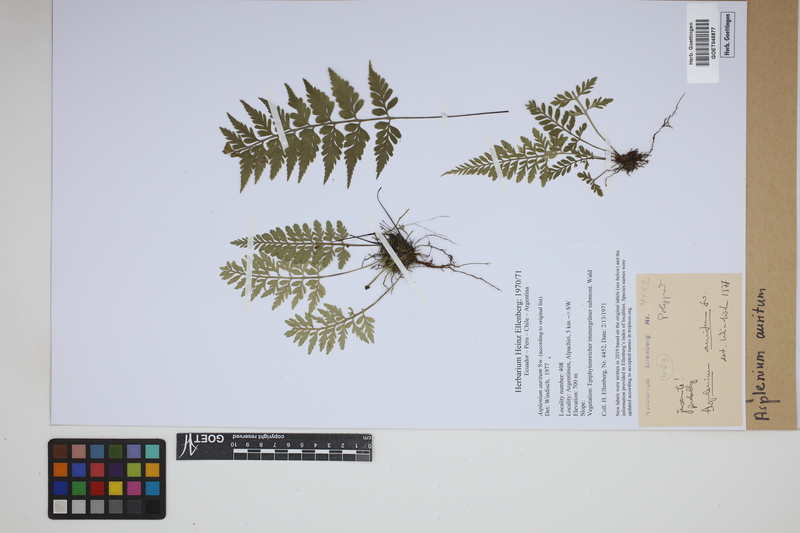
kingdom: Plantae
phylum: Tracheophyta
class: Polypodiopsida
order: Polypodiales
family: Aspleniaceae
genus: Asplenium
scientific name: Asplenium auritum
